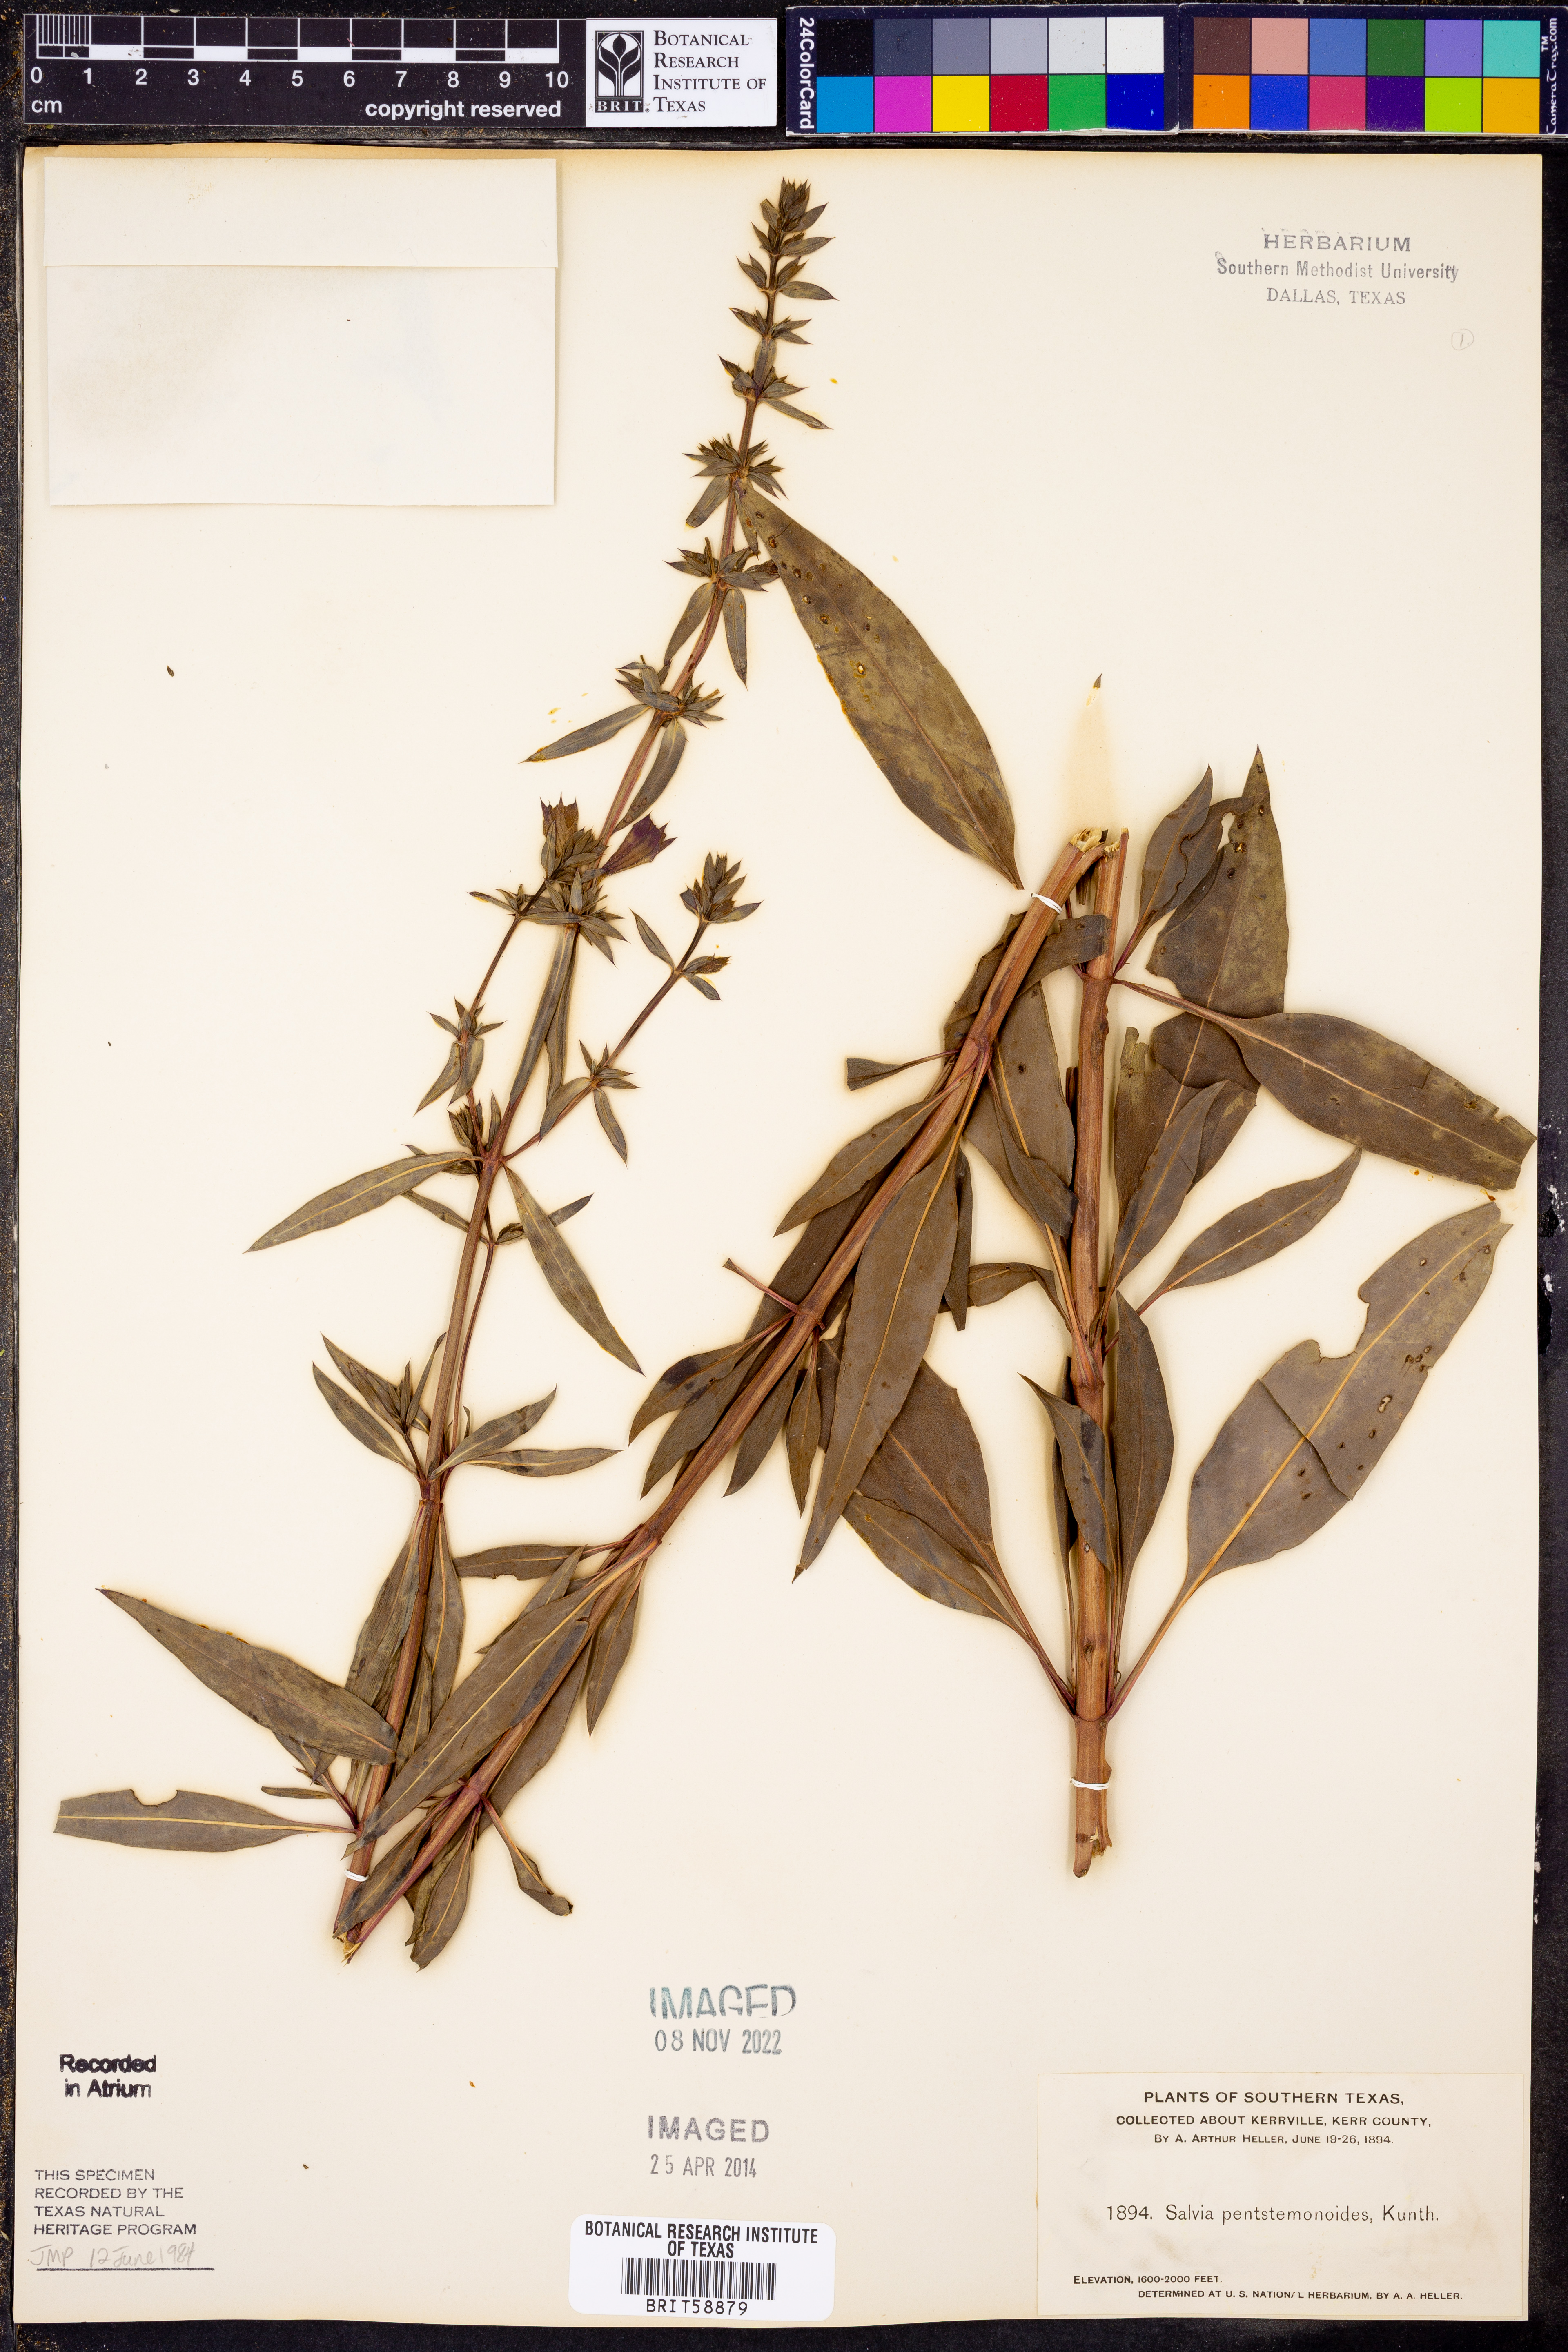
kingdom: Plantae
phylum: Tracheophyta
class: Magnoliopsida
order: Lamiales
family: Lamiaceae
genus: Salvia
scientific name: Salvia penstemonoides
